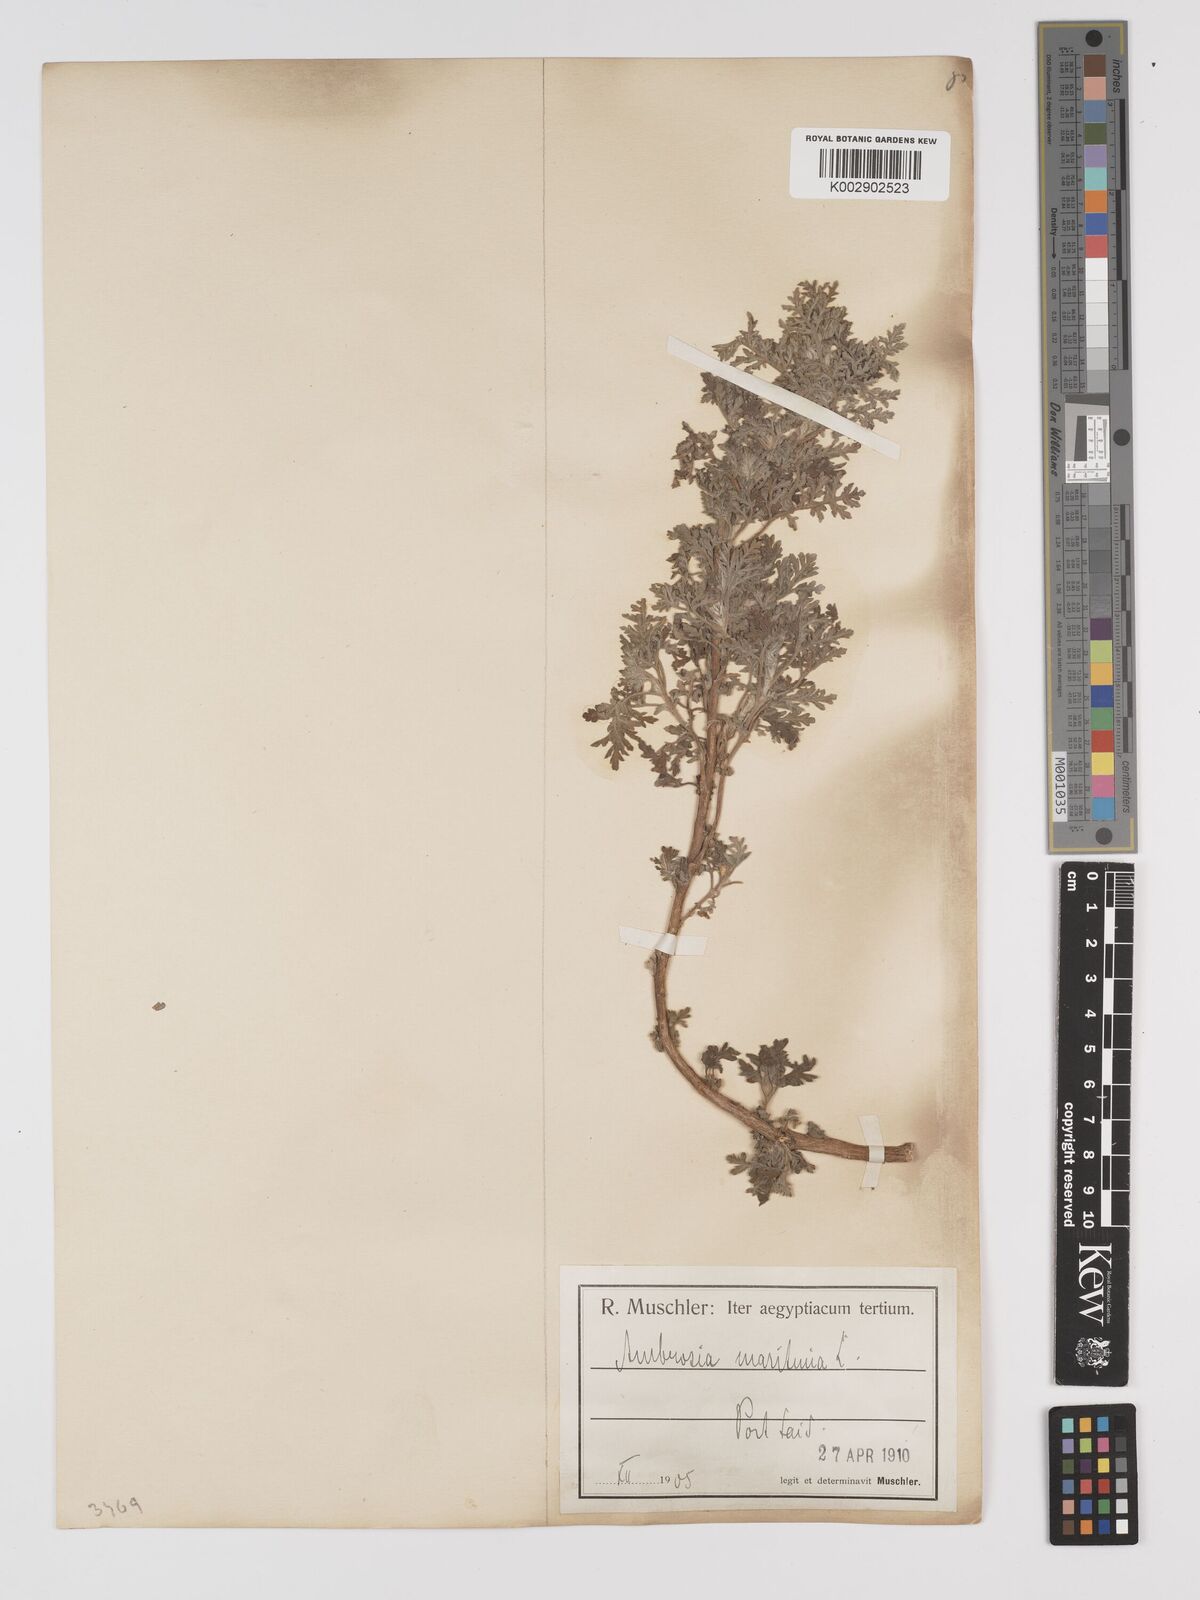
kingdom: Plantae
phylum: Tracheophyta
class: Magnoliopsida
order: Asterales
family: Asteraceae
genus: Ambrosia
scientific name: Ambrosia maritima
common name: Sea ambrosia
